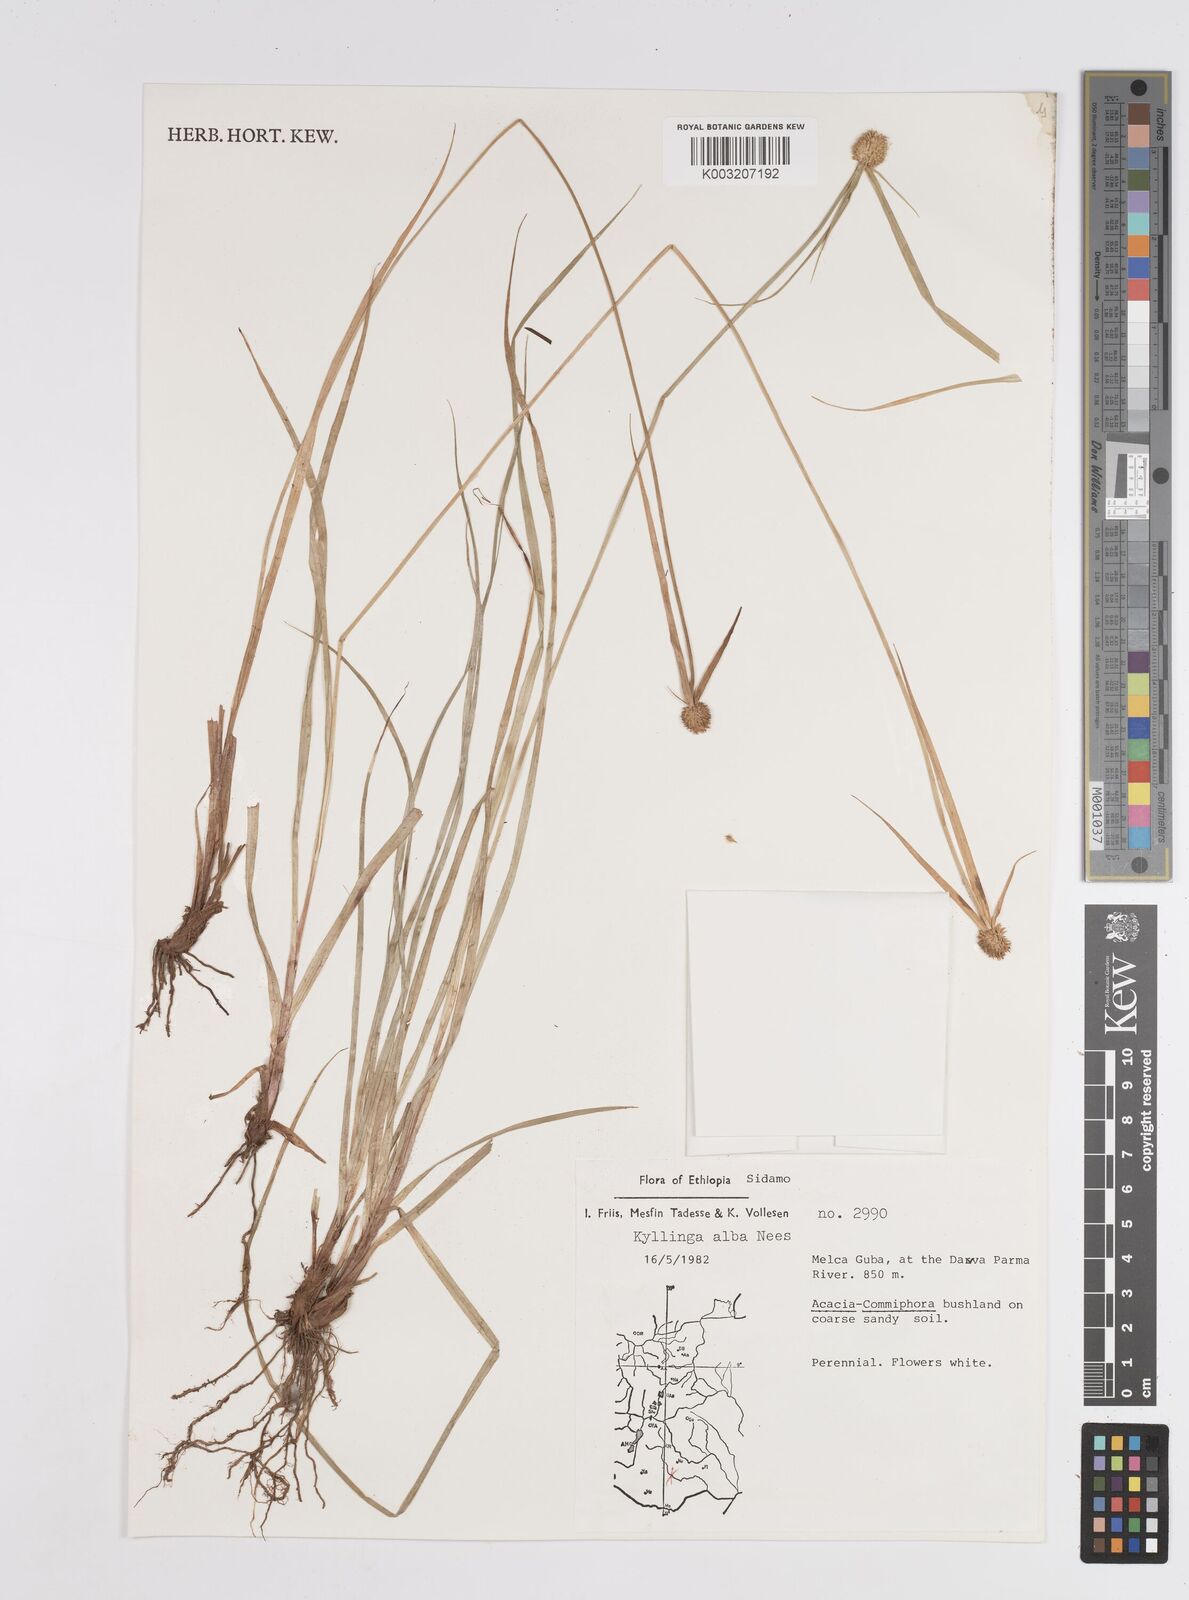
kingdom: Plantae
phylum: Tracheophyta
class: Liliopsida
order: Poales
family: Cyperaceae
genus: Cyperus
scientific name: Cyperus
